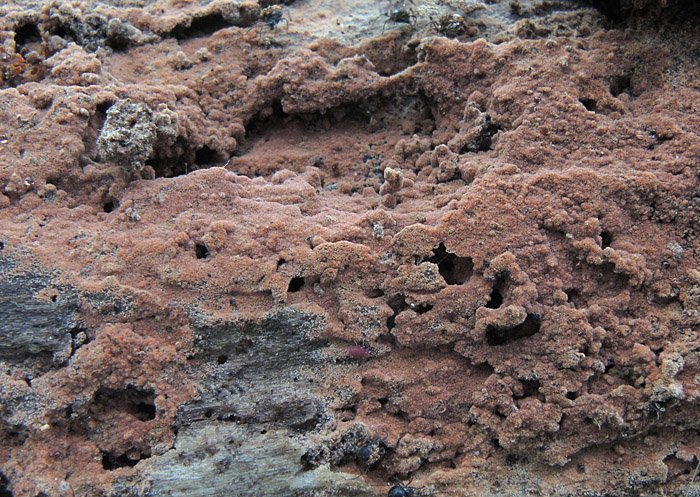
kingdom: Fungi
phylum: Basidiomycota
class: Agaricomycetes
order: Thelephorales
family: Thelephoraceae
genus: Tomentella
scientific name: Tomentella lateritia
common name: teglrød frynsehinde
